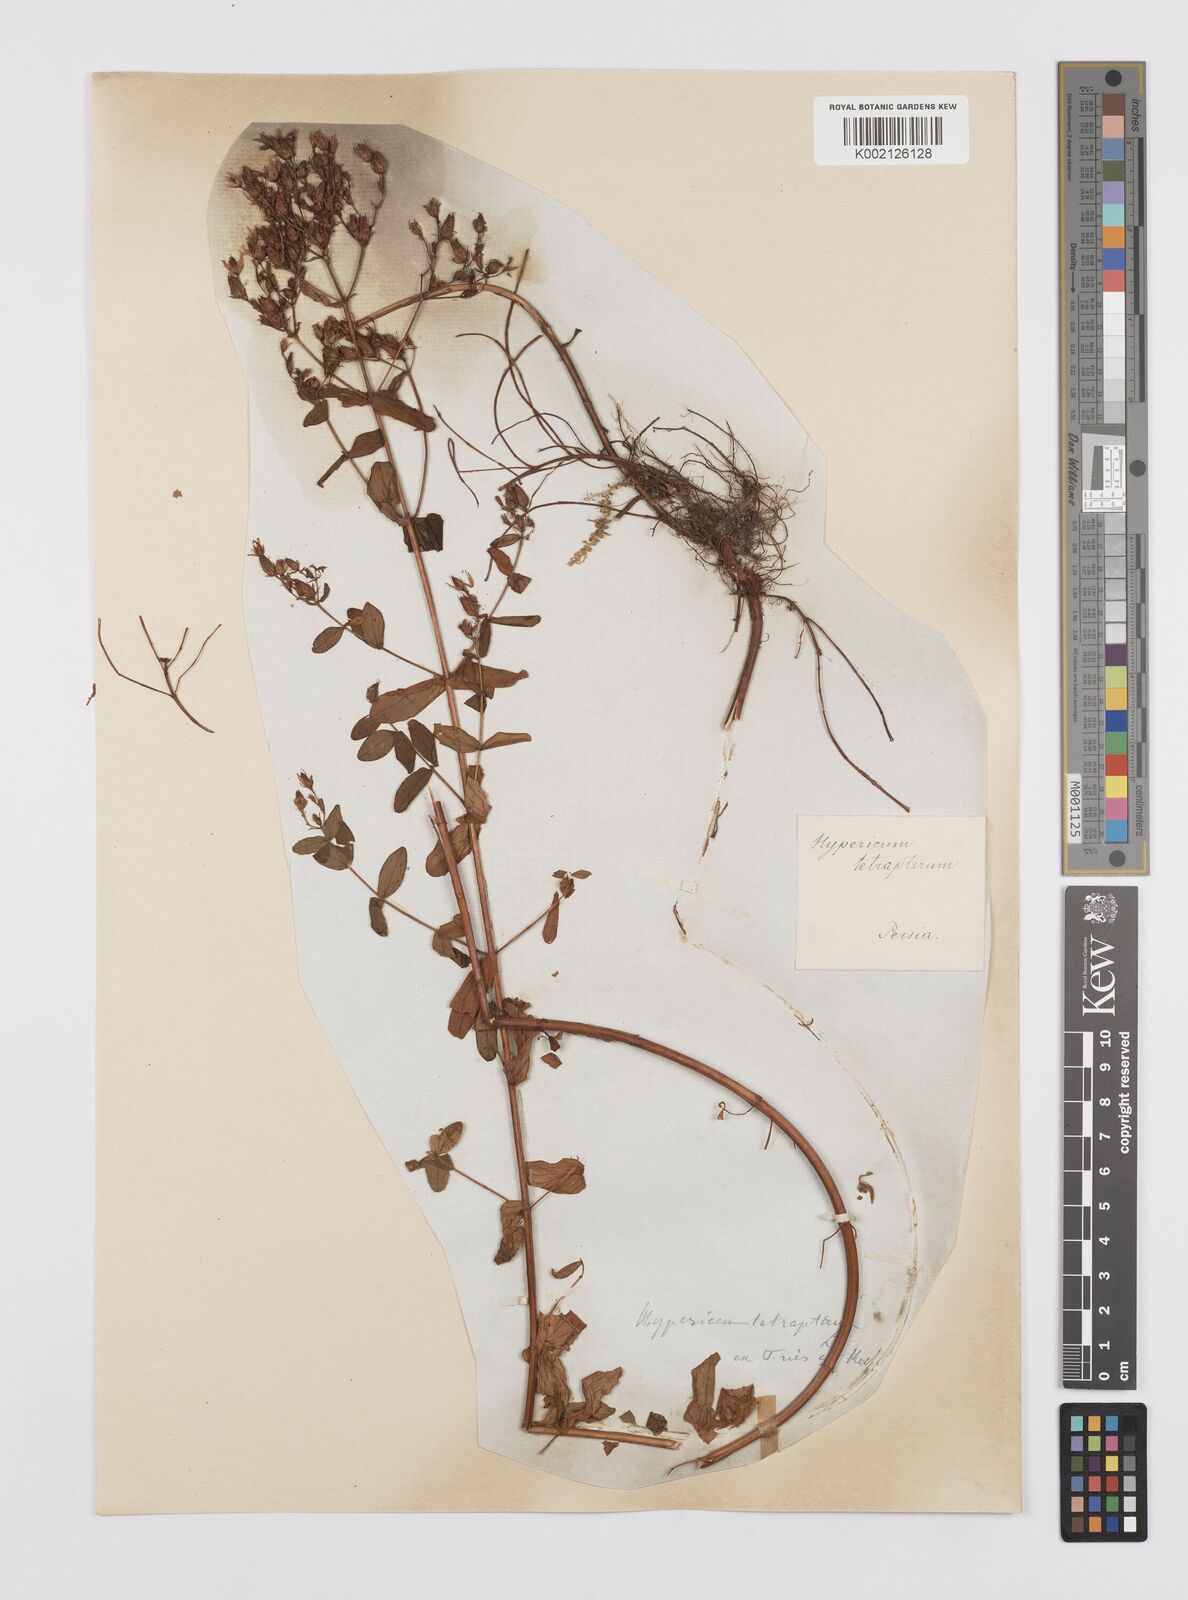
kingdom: Plantae
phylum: Tracheophyta
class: Magnoliopsida
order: Malpighiales
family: Hypericaceae
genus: Hypericum
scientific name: Hypericum tetrapterum
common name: Square-stalked st. john's-wort
